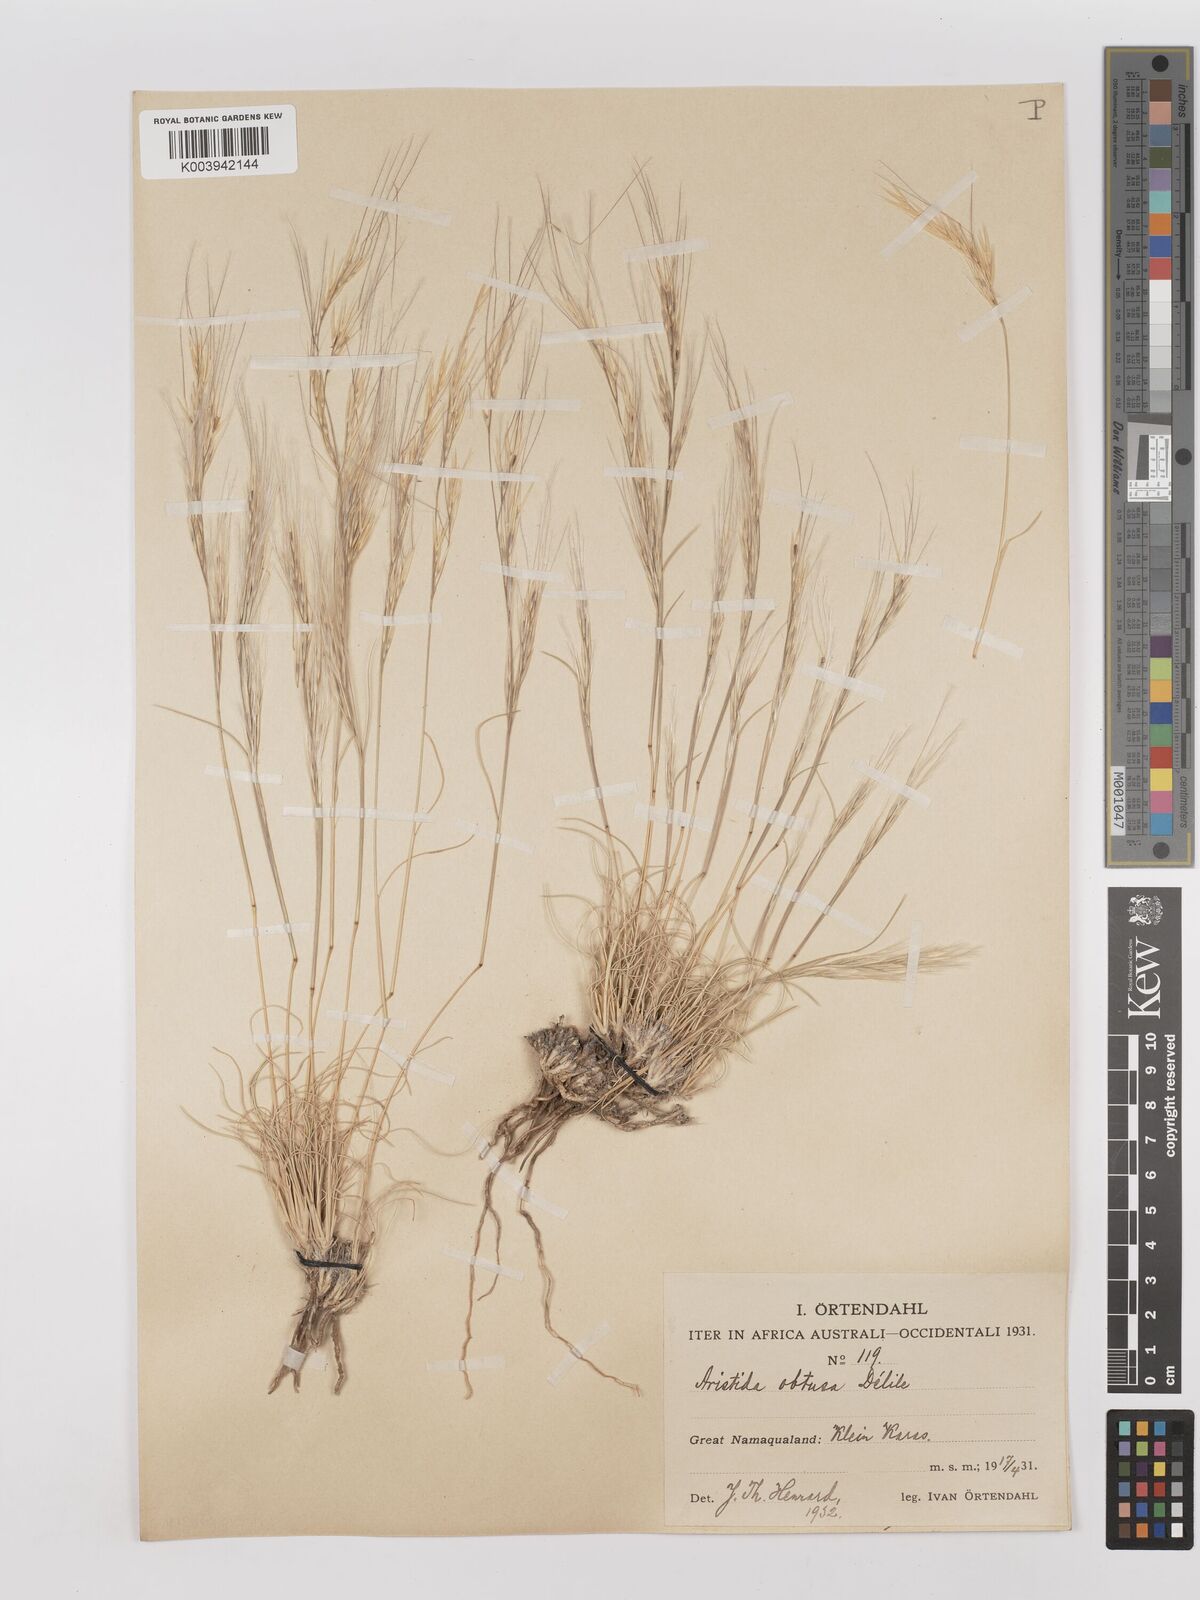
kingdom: Plantae
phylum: Tracheophyta
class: Liliopsida
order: Poales
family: Poaceae
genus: Stipagrostis
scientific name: Stipagrostis obtusa
